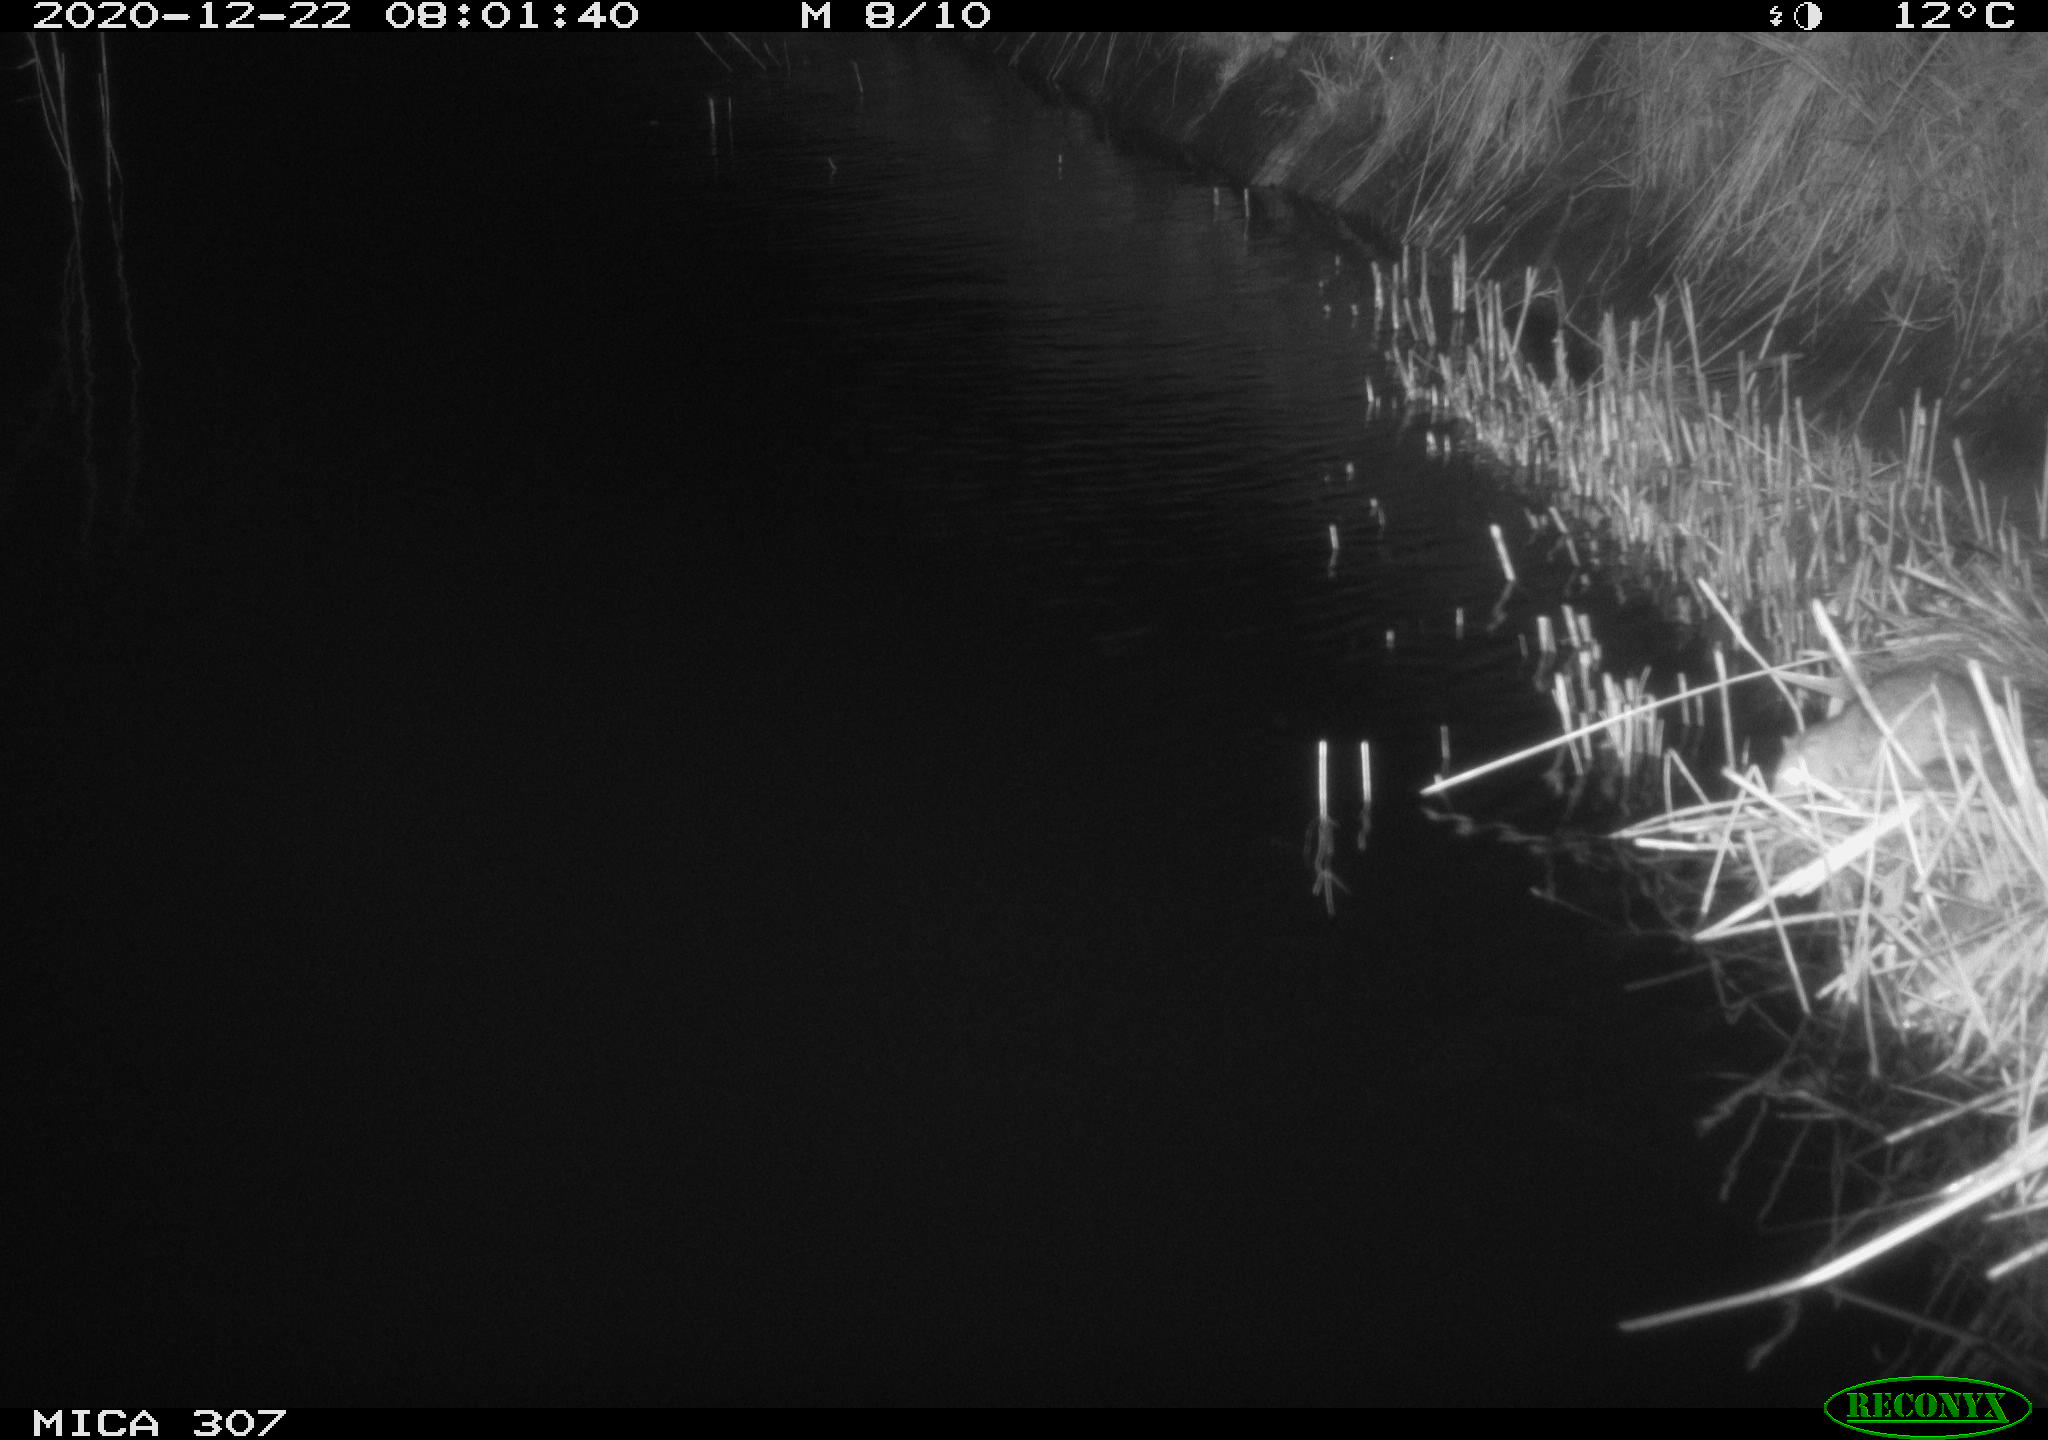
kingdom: Animalia
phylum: Chordata
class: Mammalia
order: Rodentia
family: Muridae
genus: Rattus
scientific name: Rattus norvegicus
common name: Brown rat
